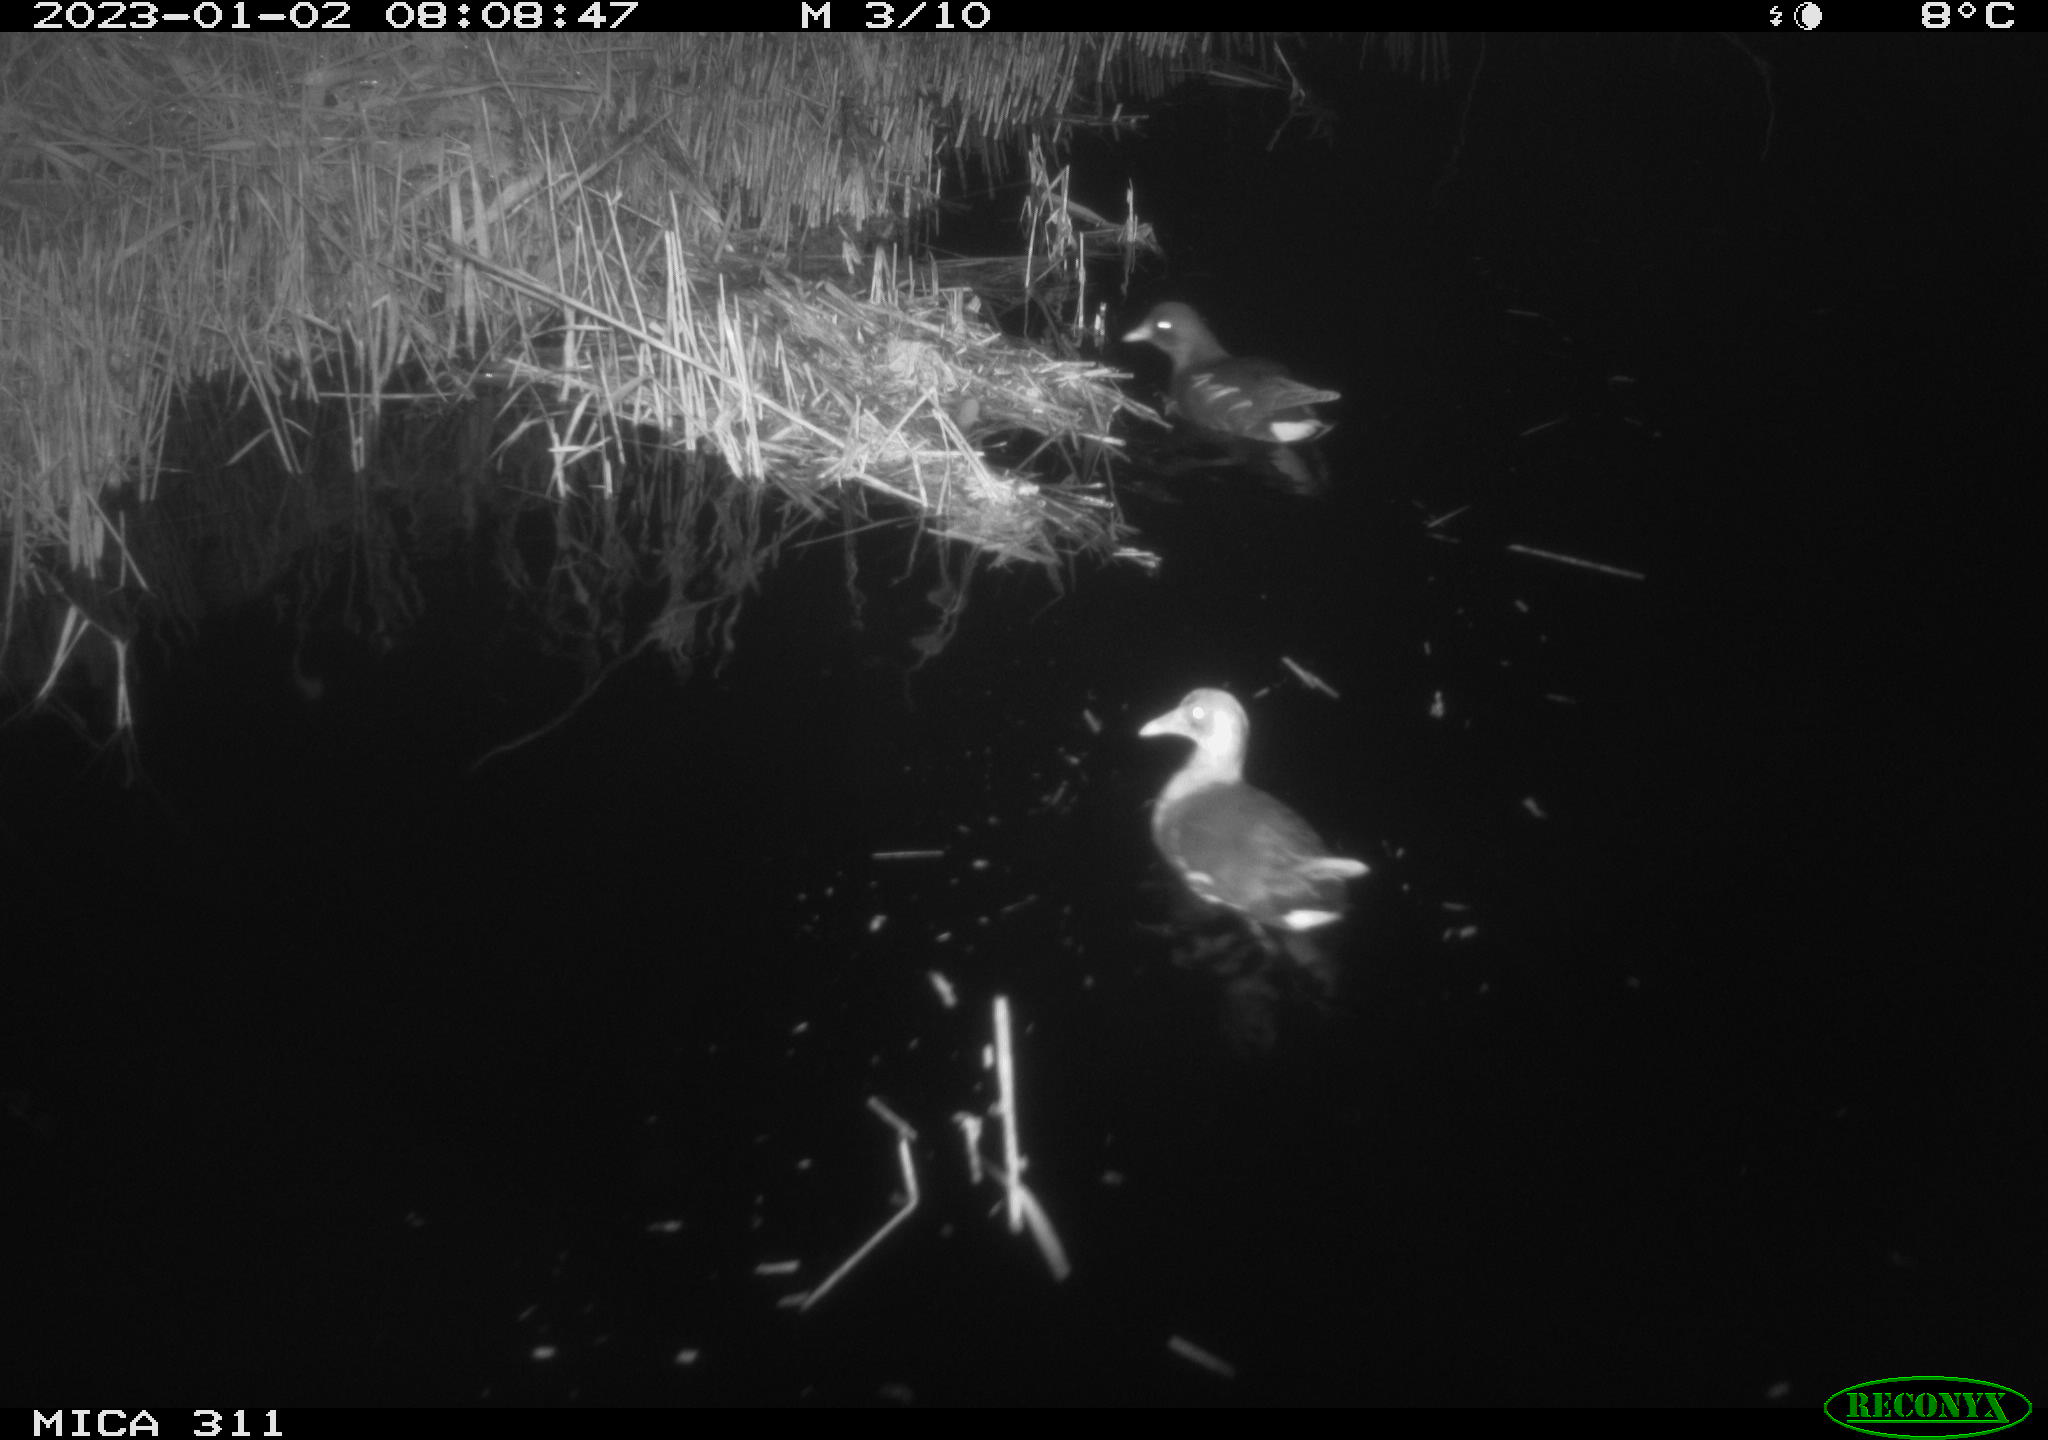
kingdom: Animalia
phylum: Chordata
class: Aves
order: Gruiformes
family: Rallidae
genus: Gallinula
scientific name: Gallinula chloropus
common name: Common moorhen
